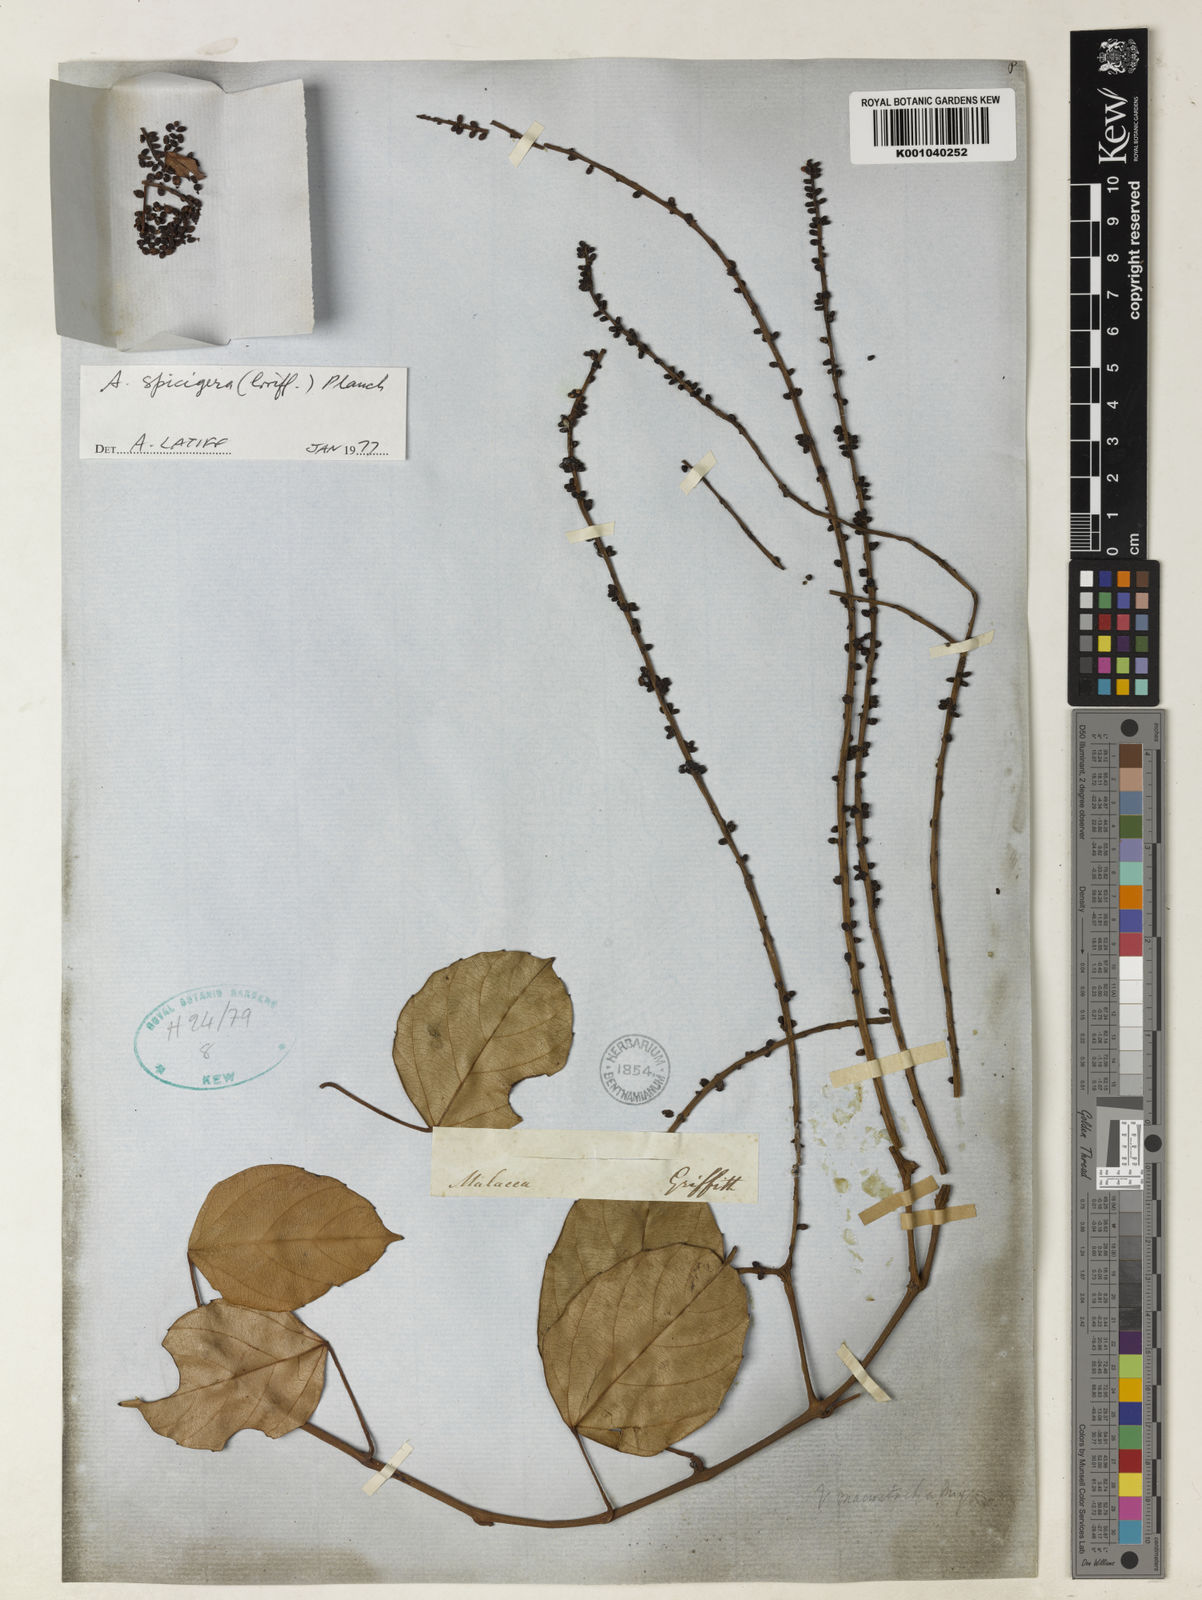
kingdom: Plantae
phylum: Tracheophyta
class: Magnoliopsida
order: Vitales
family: Vitaceae
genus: Nothocissus
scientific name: Nothocissus spicifera
